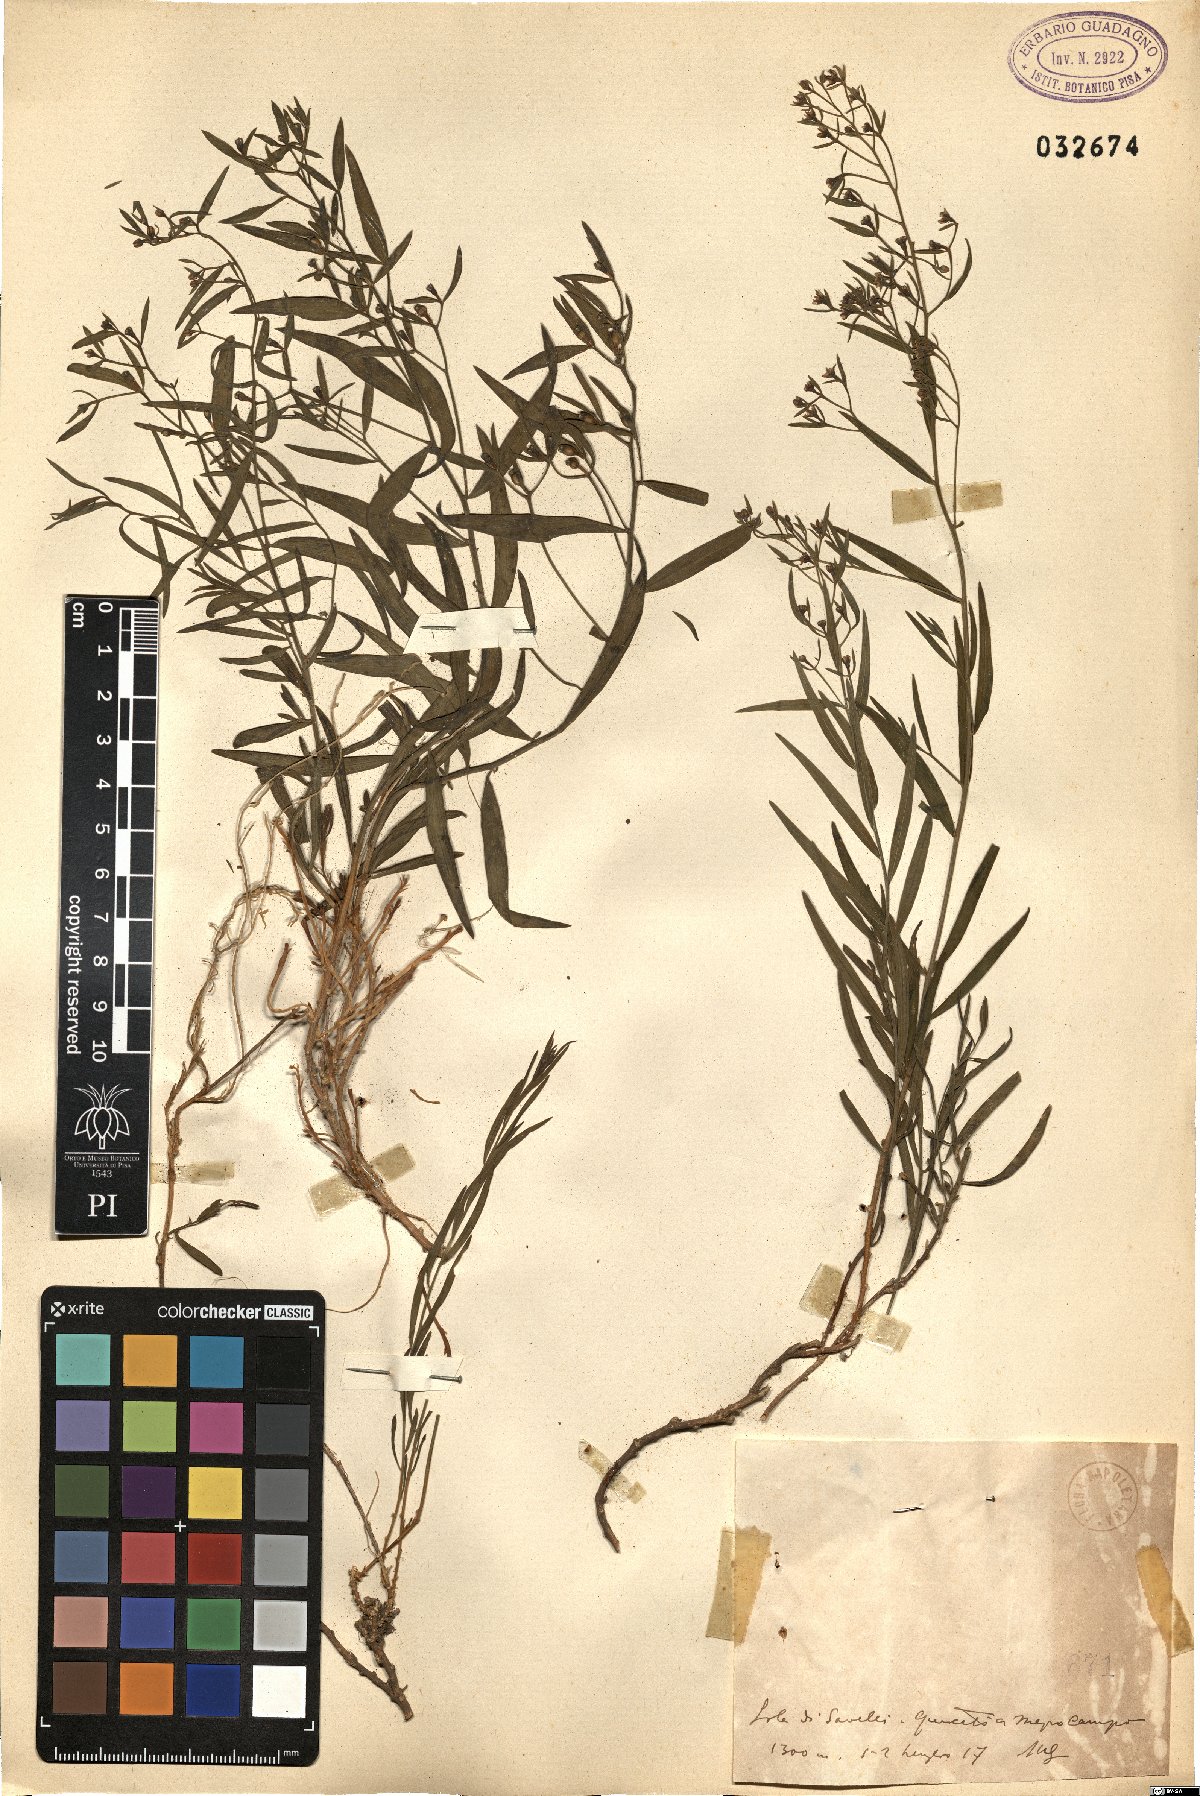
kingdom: Plantae
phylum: Tracheophyta
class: Magnoliopsida
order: Santalales
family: Thesiaceae
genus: Thesium
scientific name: Thesium
